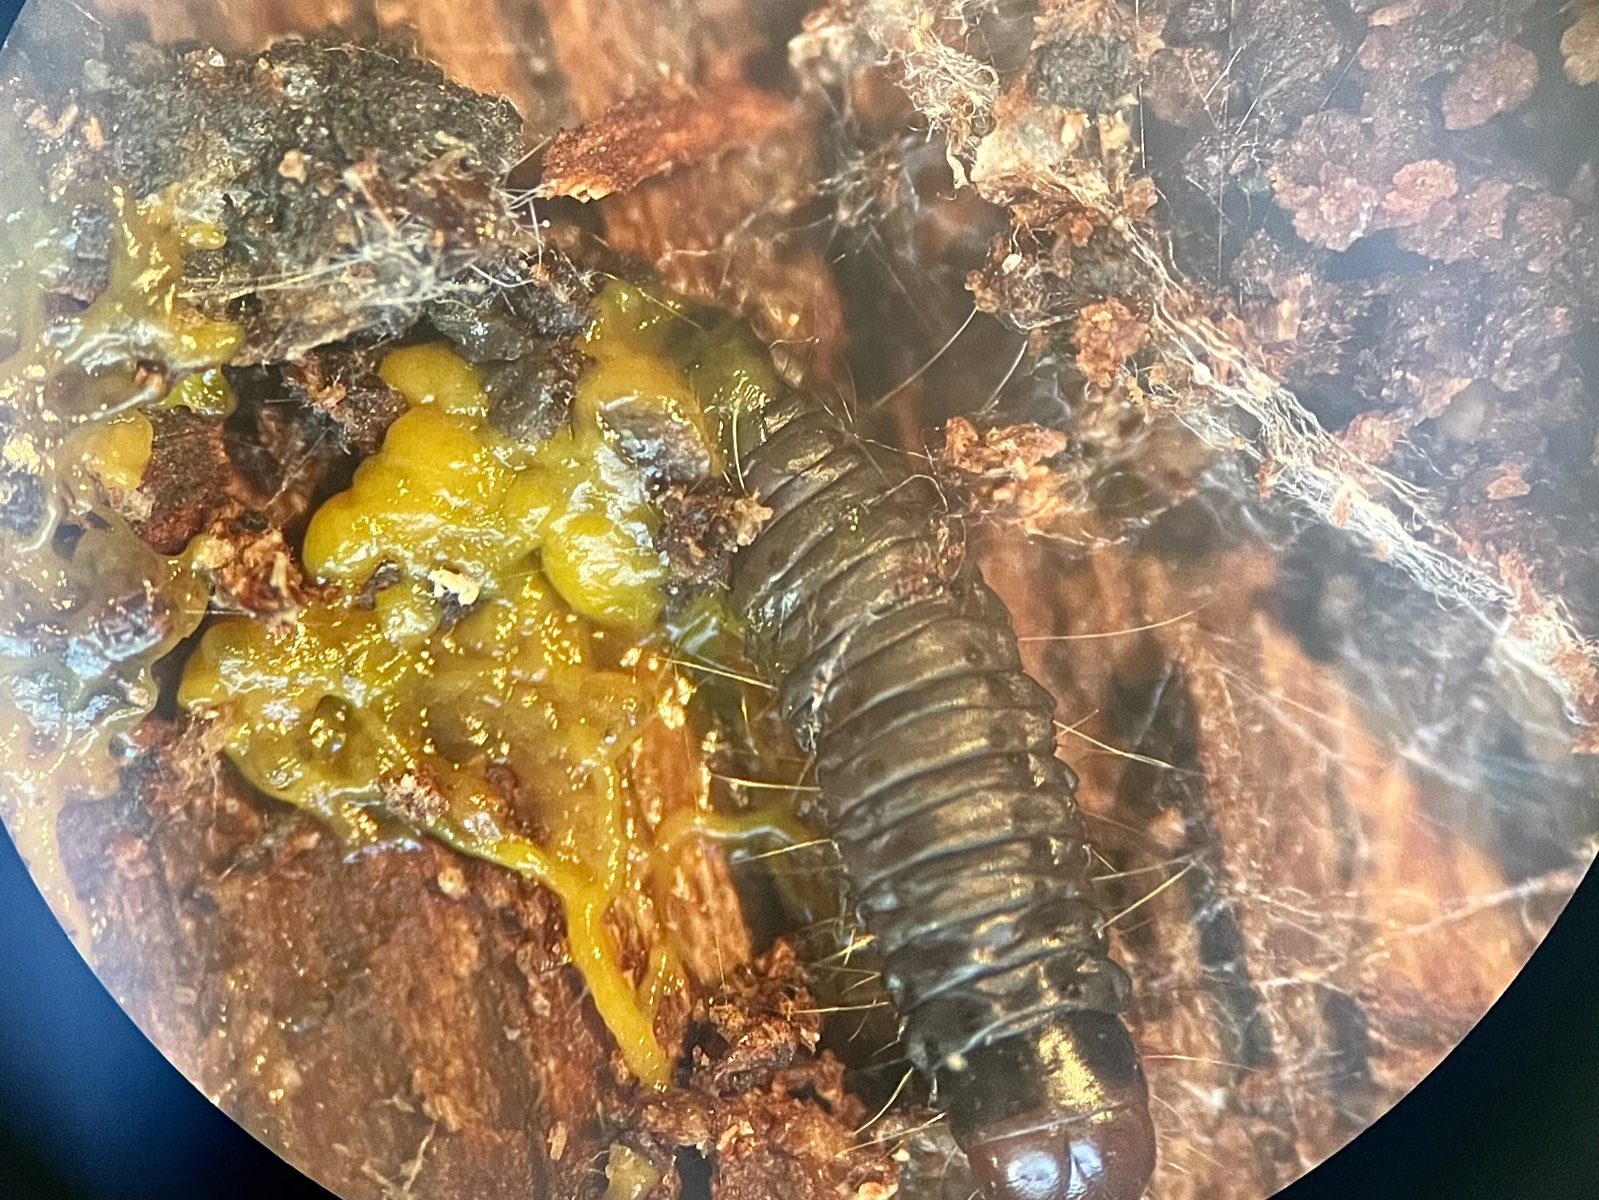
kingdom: Protozoa
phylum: Mycetozoa
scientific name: Mycetozoa
